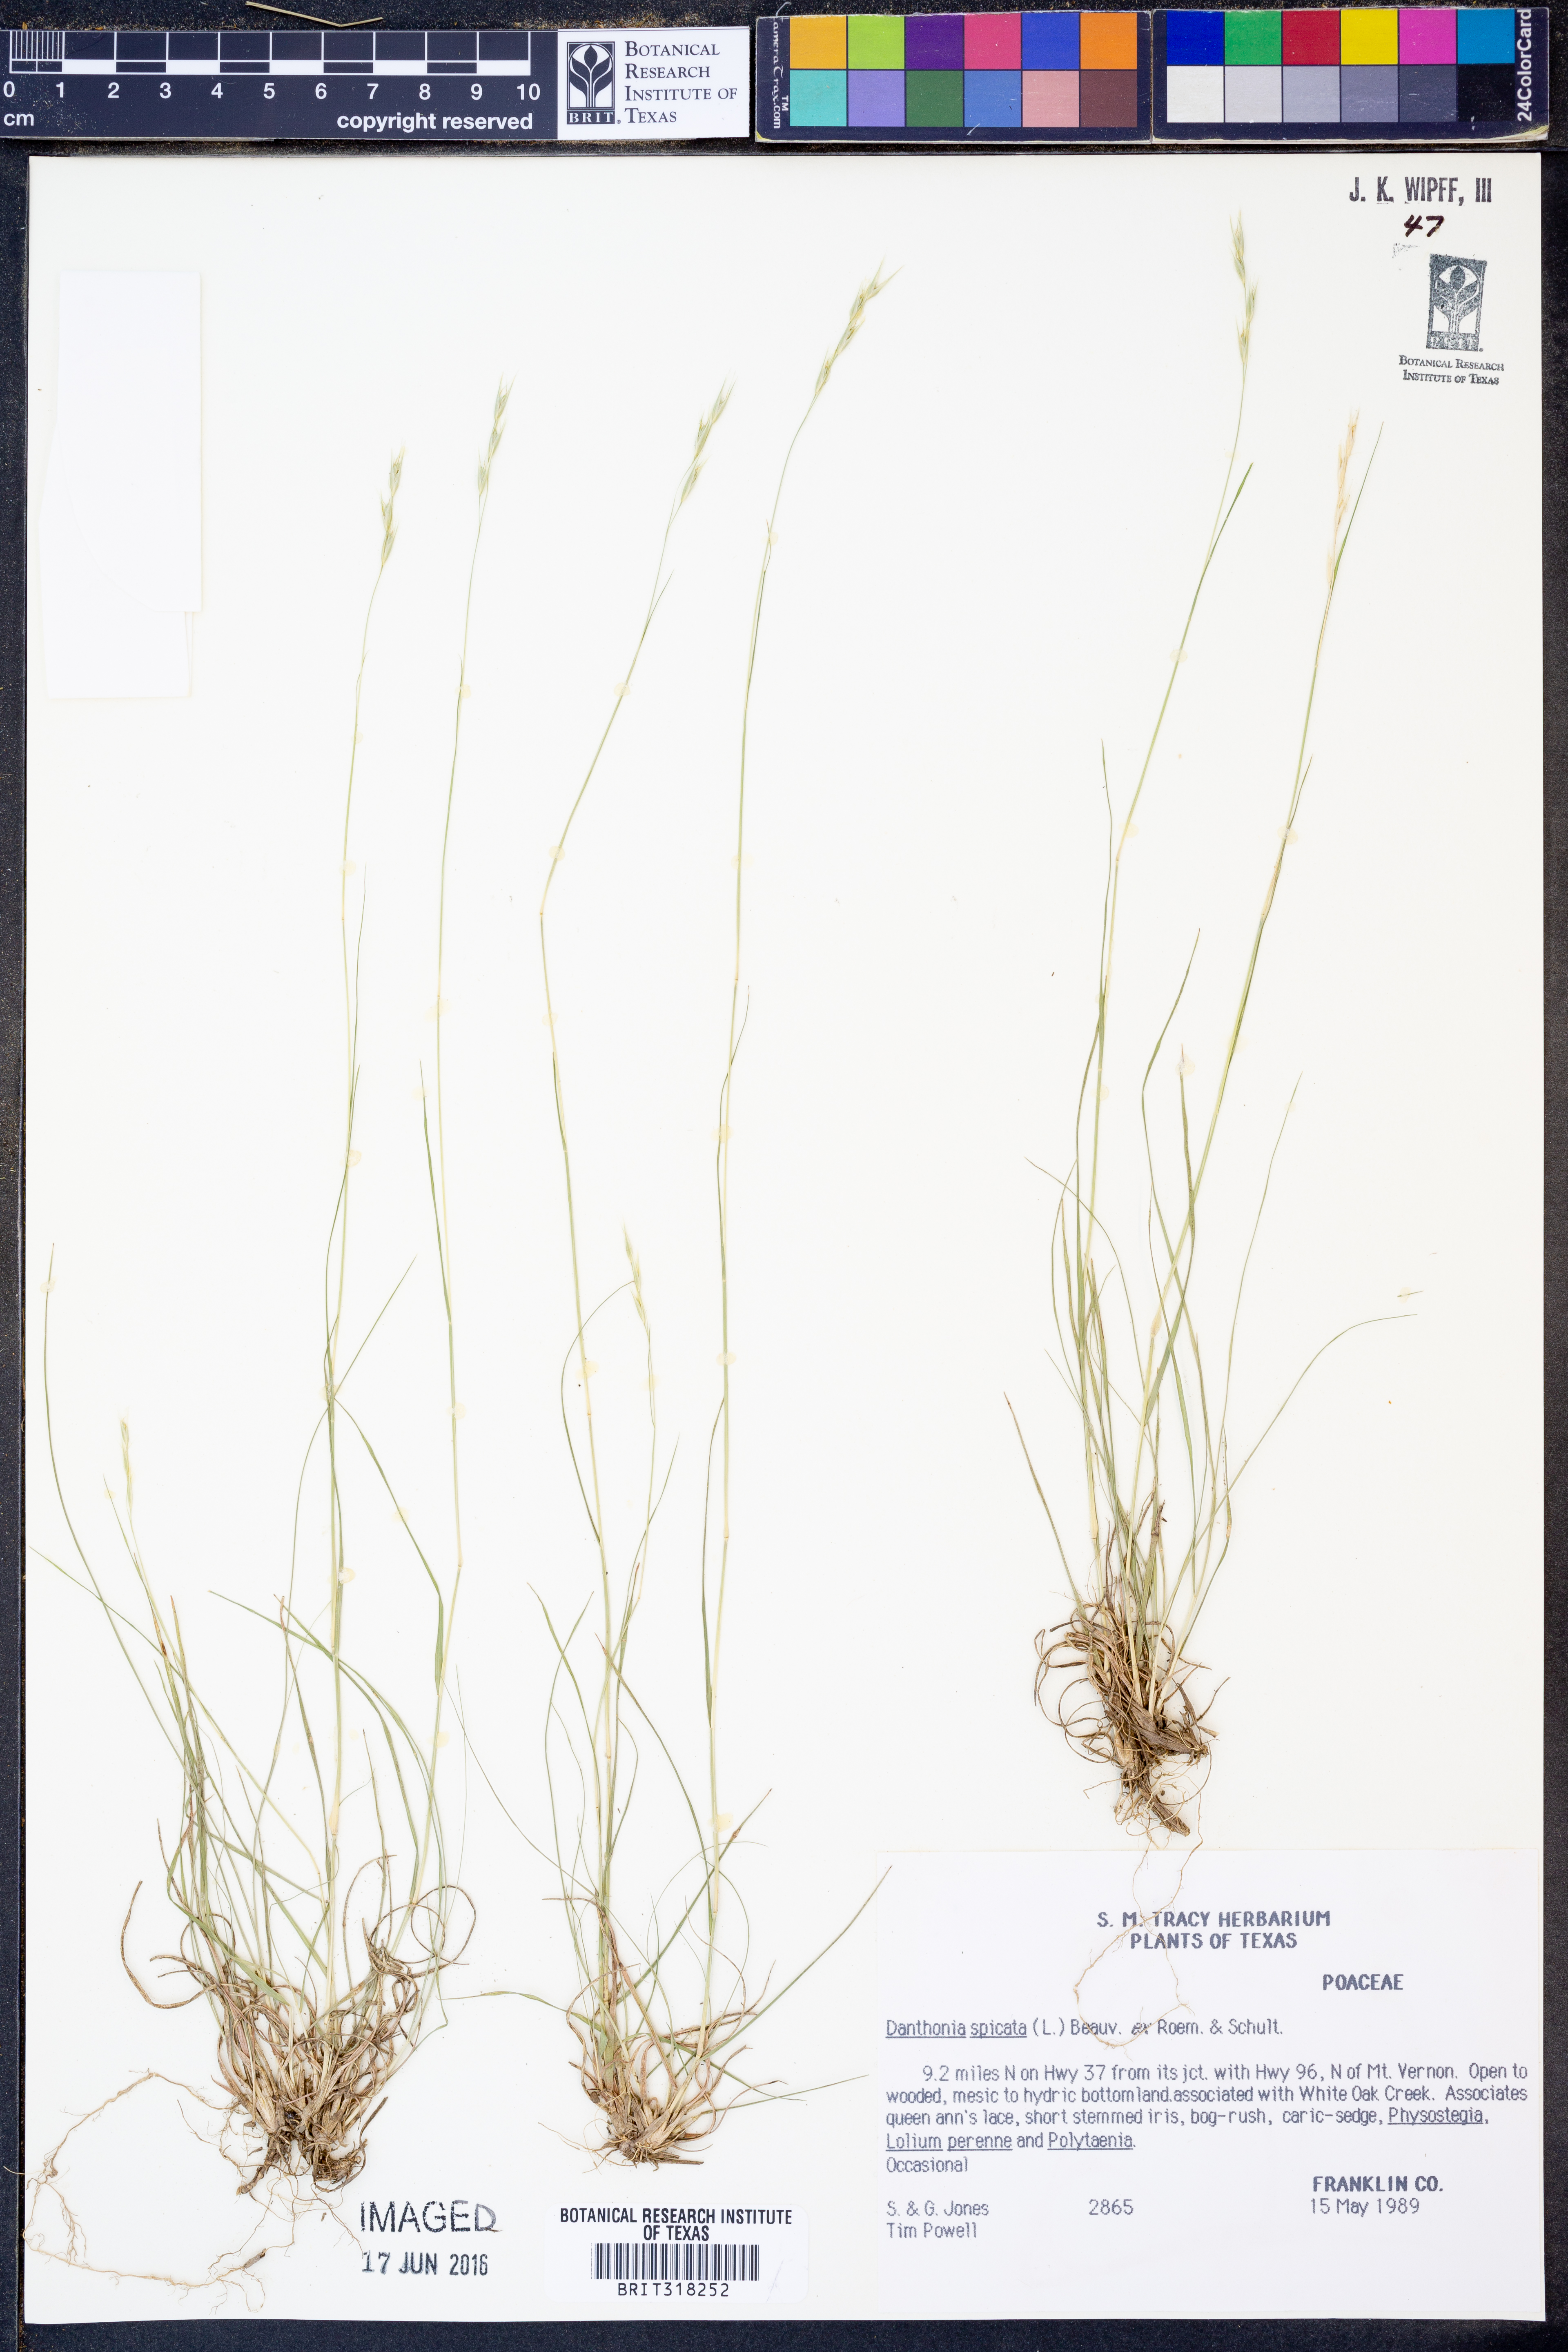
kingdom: Plantae
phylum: Tracheophyta
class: Liliopsida
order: Poales
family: Poaceae
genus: Danthonia
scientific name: Danthonia spicata
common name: Common wild oatgrass
